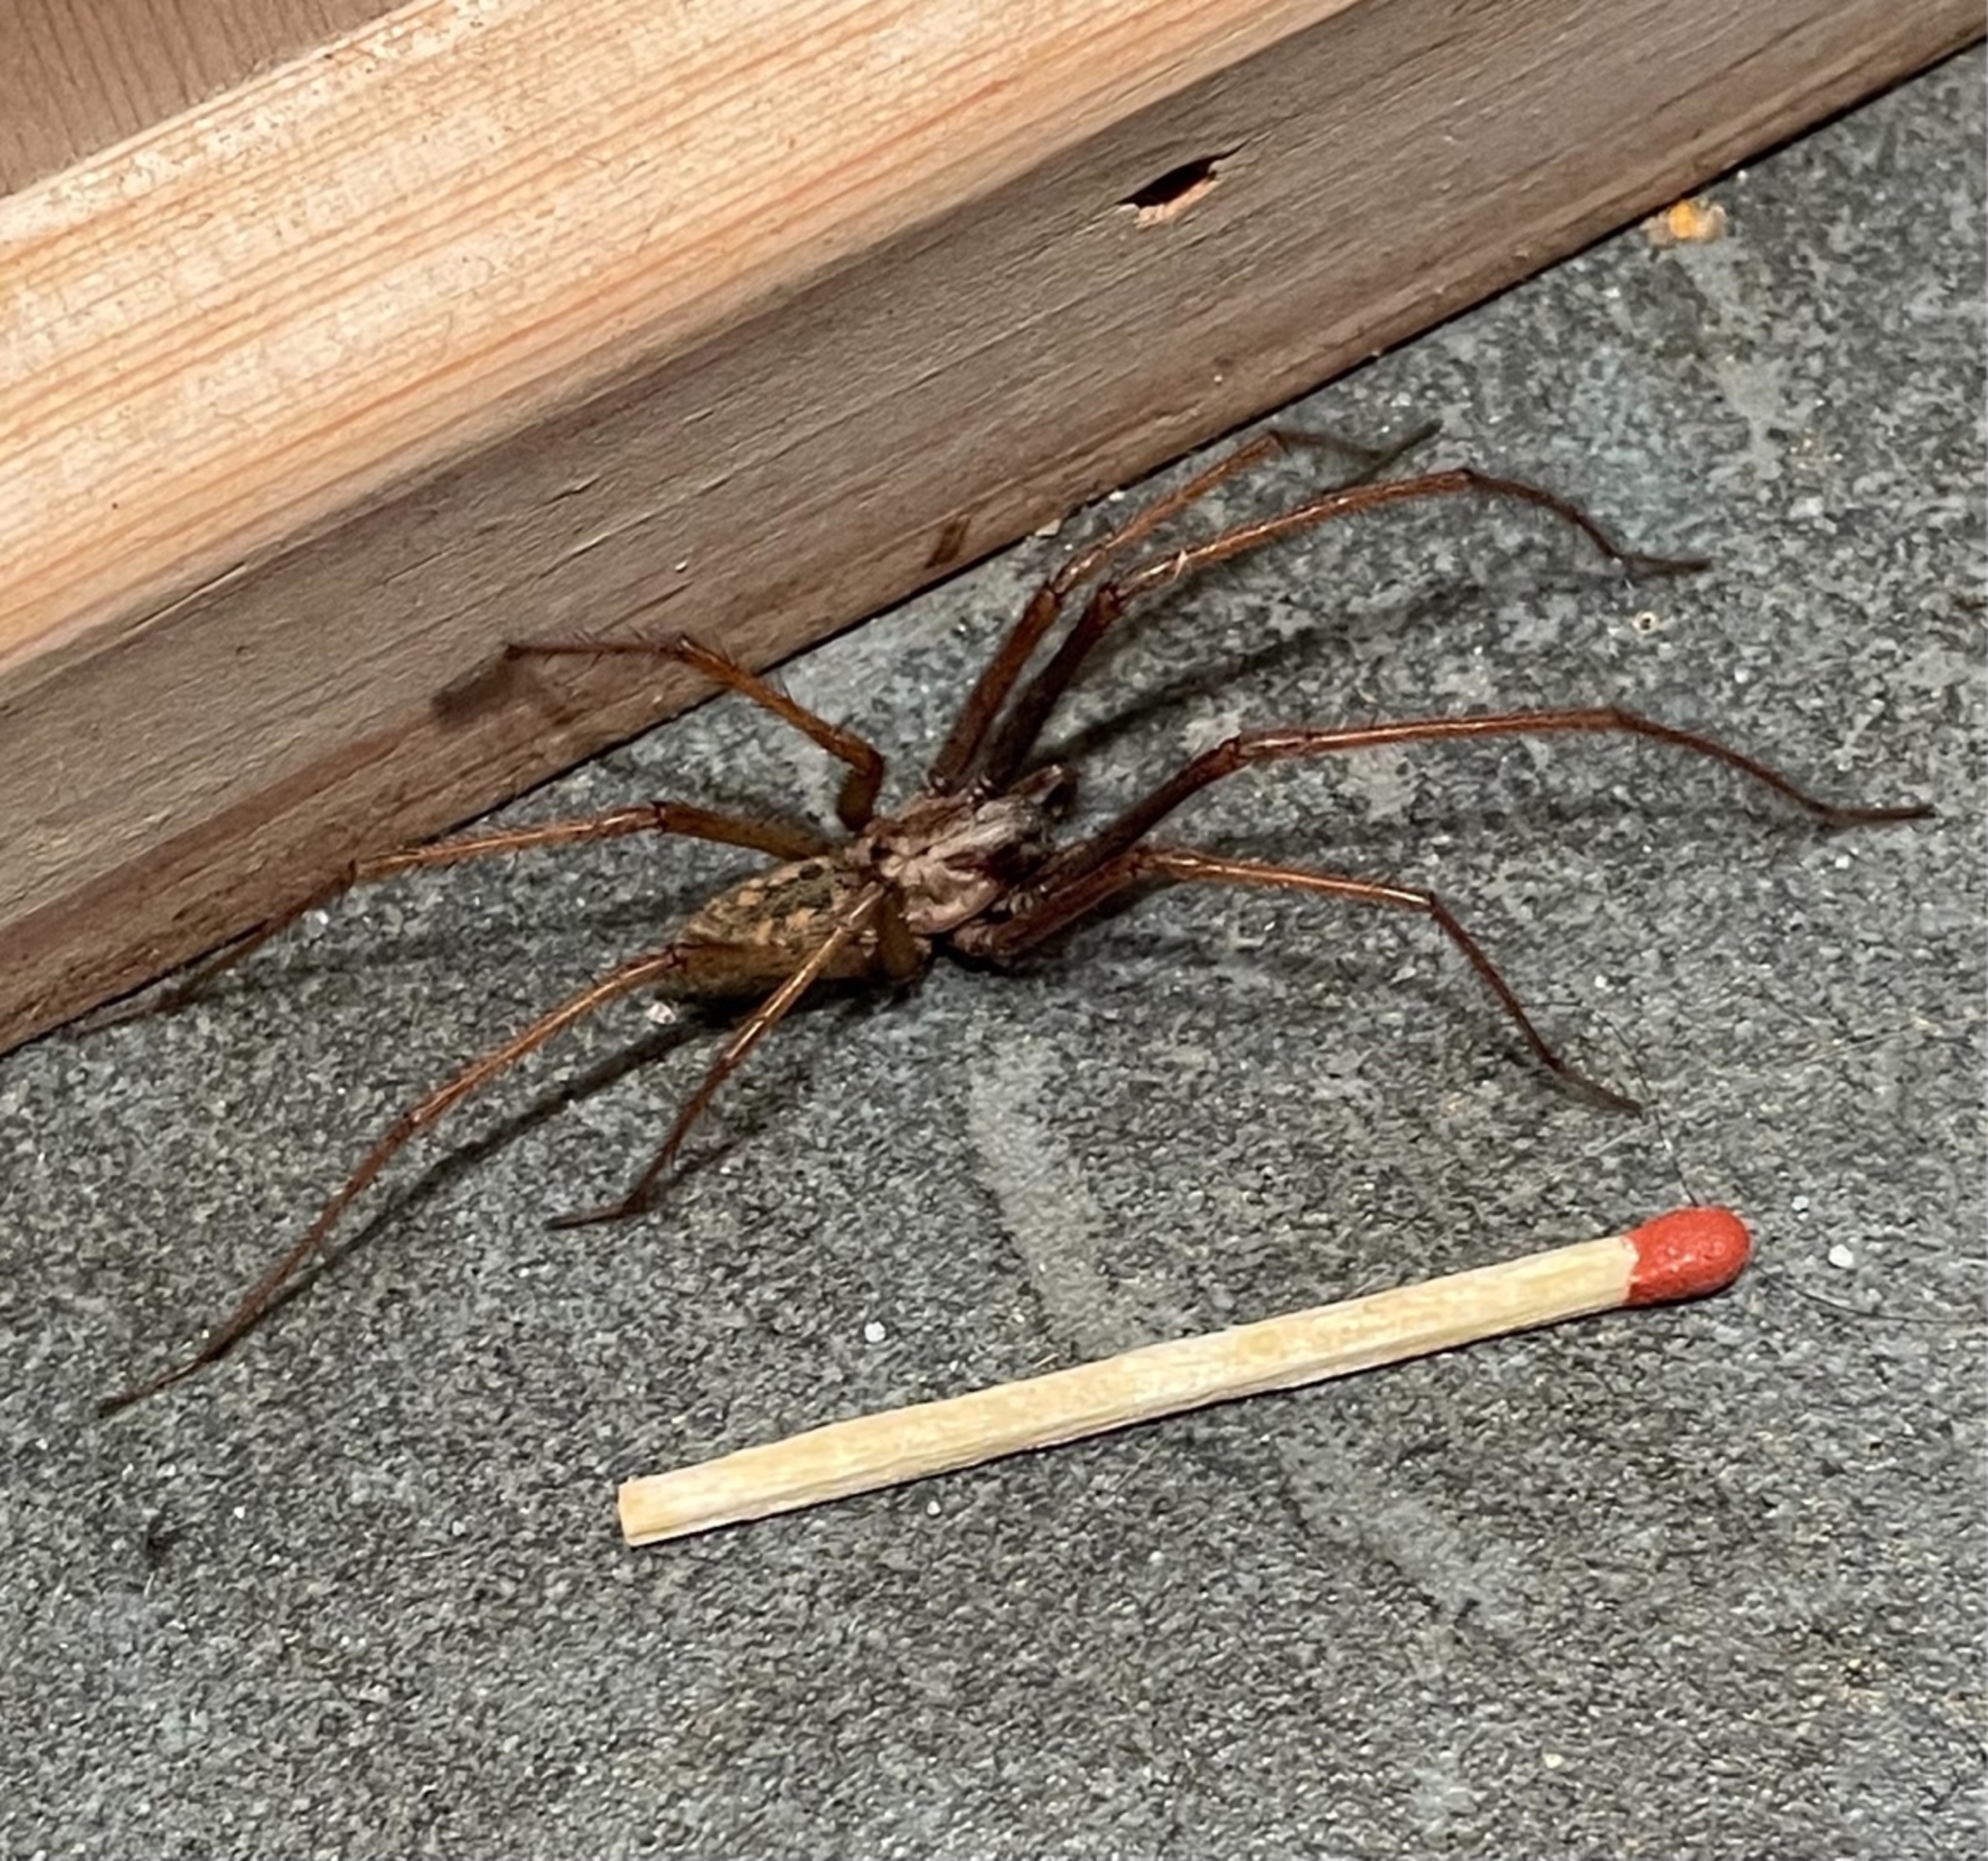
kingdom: Animalia
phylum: Arthropoda
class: Arachnida
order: Araneae
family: Agelenidae
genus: Eratigena
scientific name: Eratigena atrica
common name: Stor husedderkop
